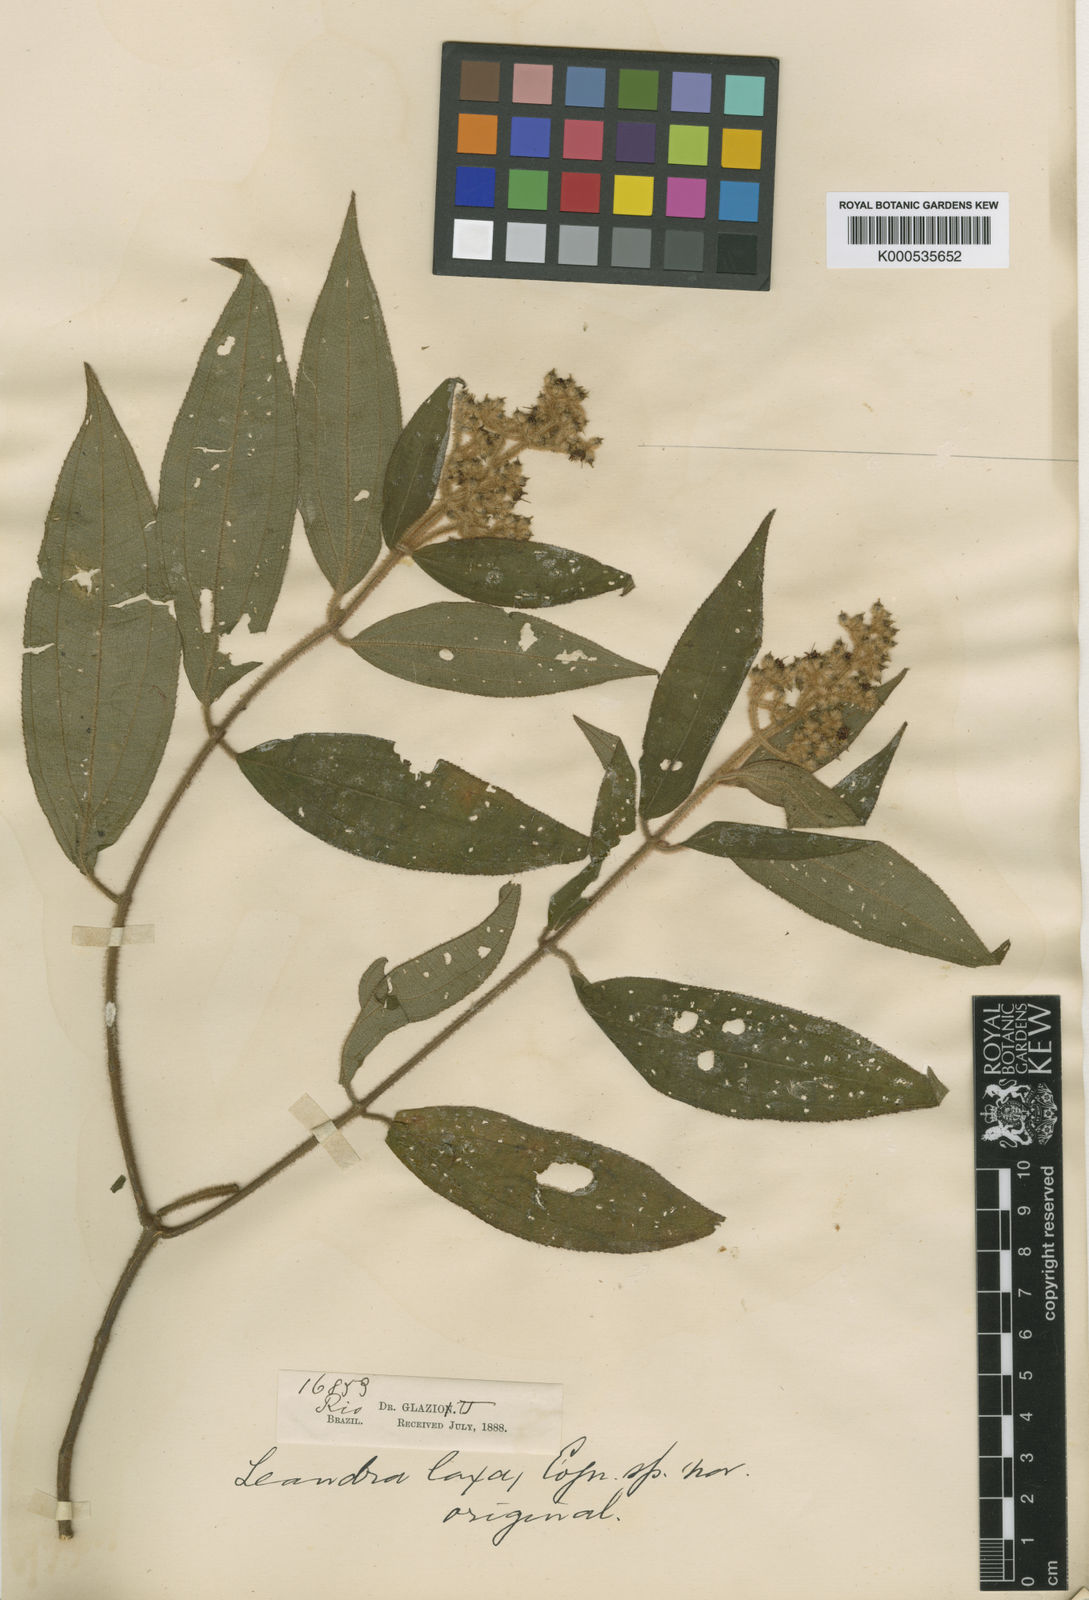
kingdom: Plantae
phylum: Tracheophyta
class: Magnoliopsida
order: Myrtales
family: Melastomataceae
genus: Miconia
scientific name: Miconia leaeriocalyx
